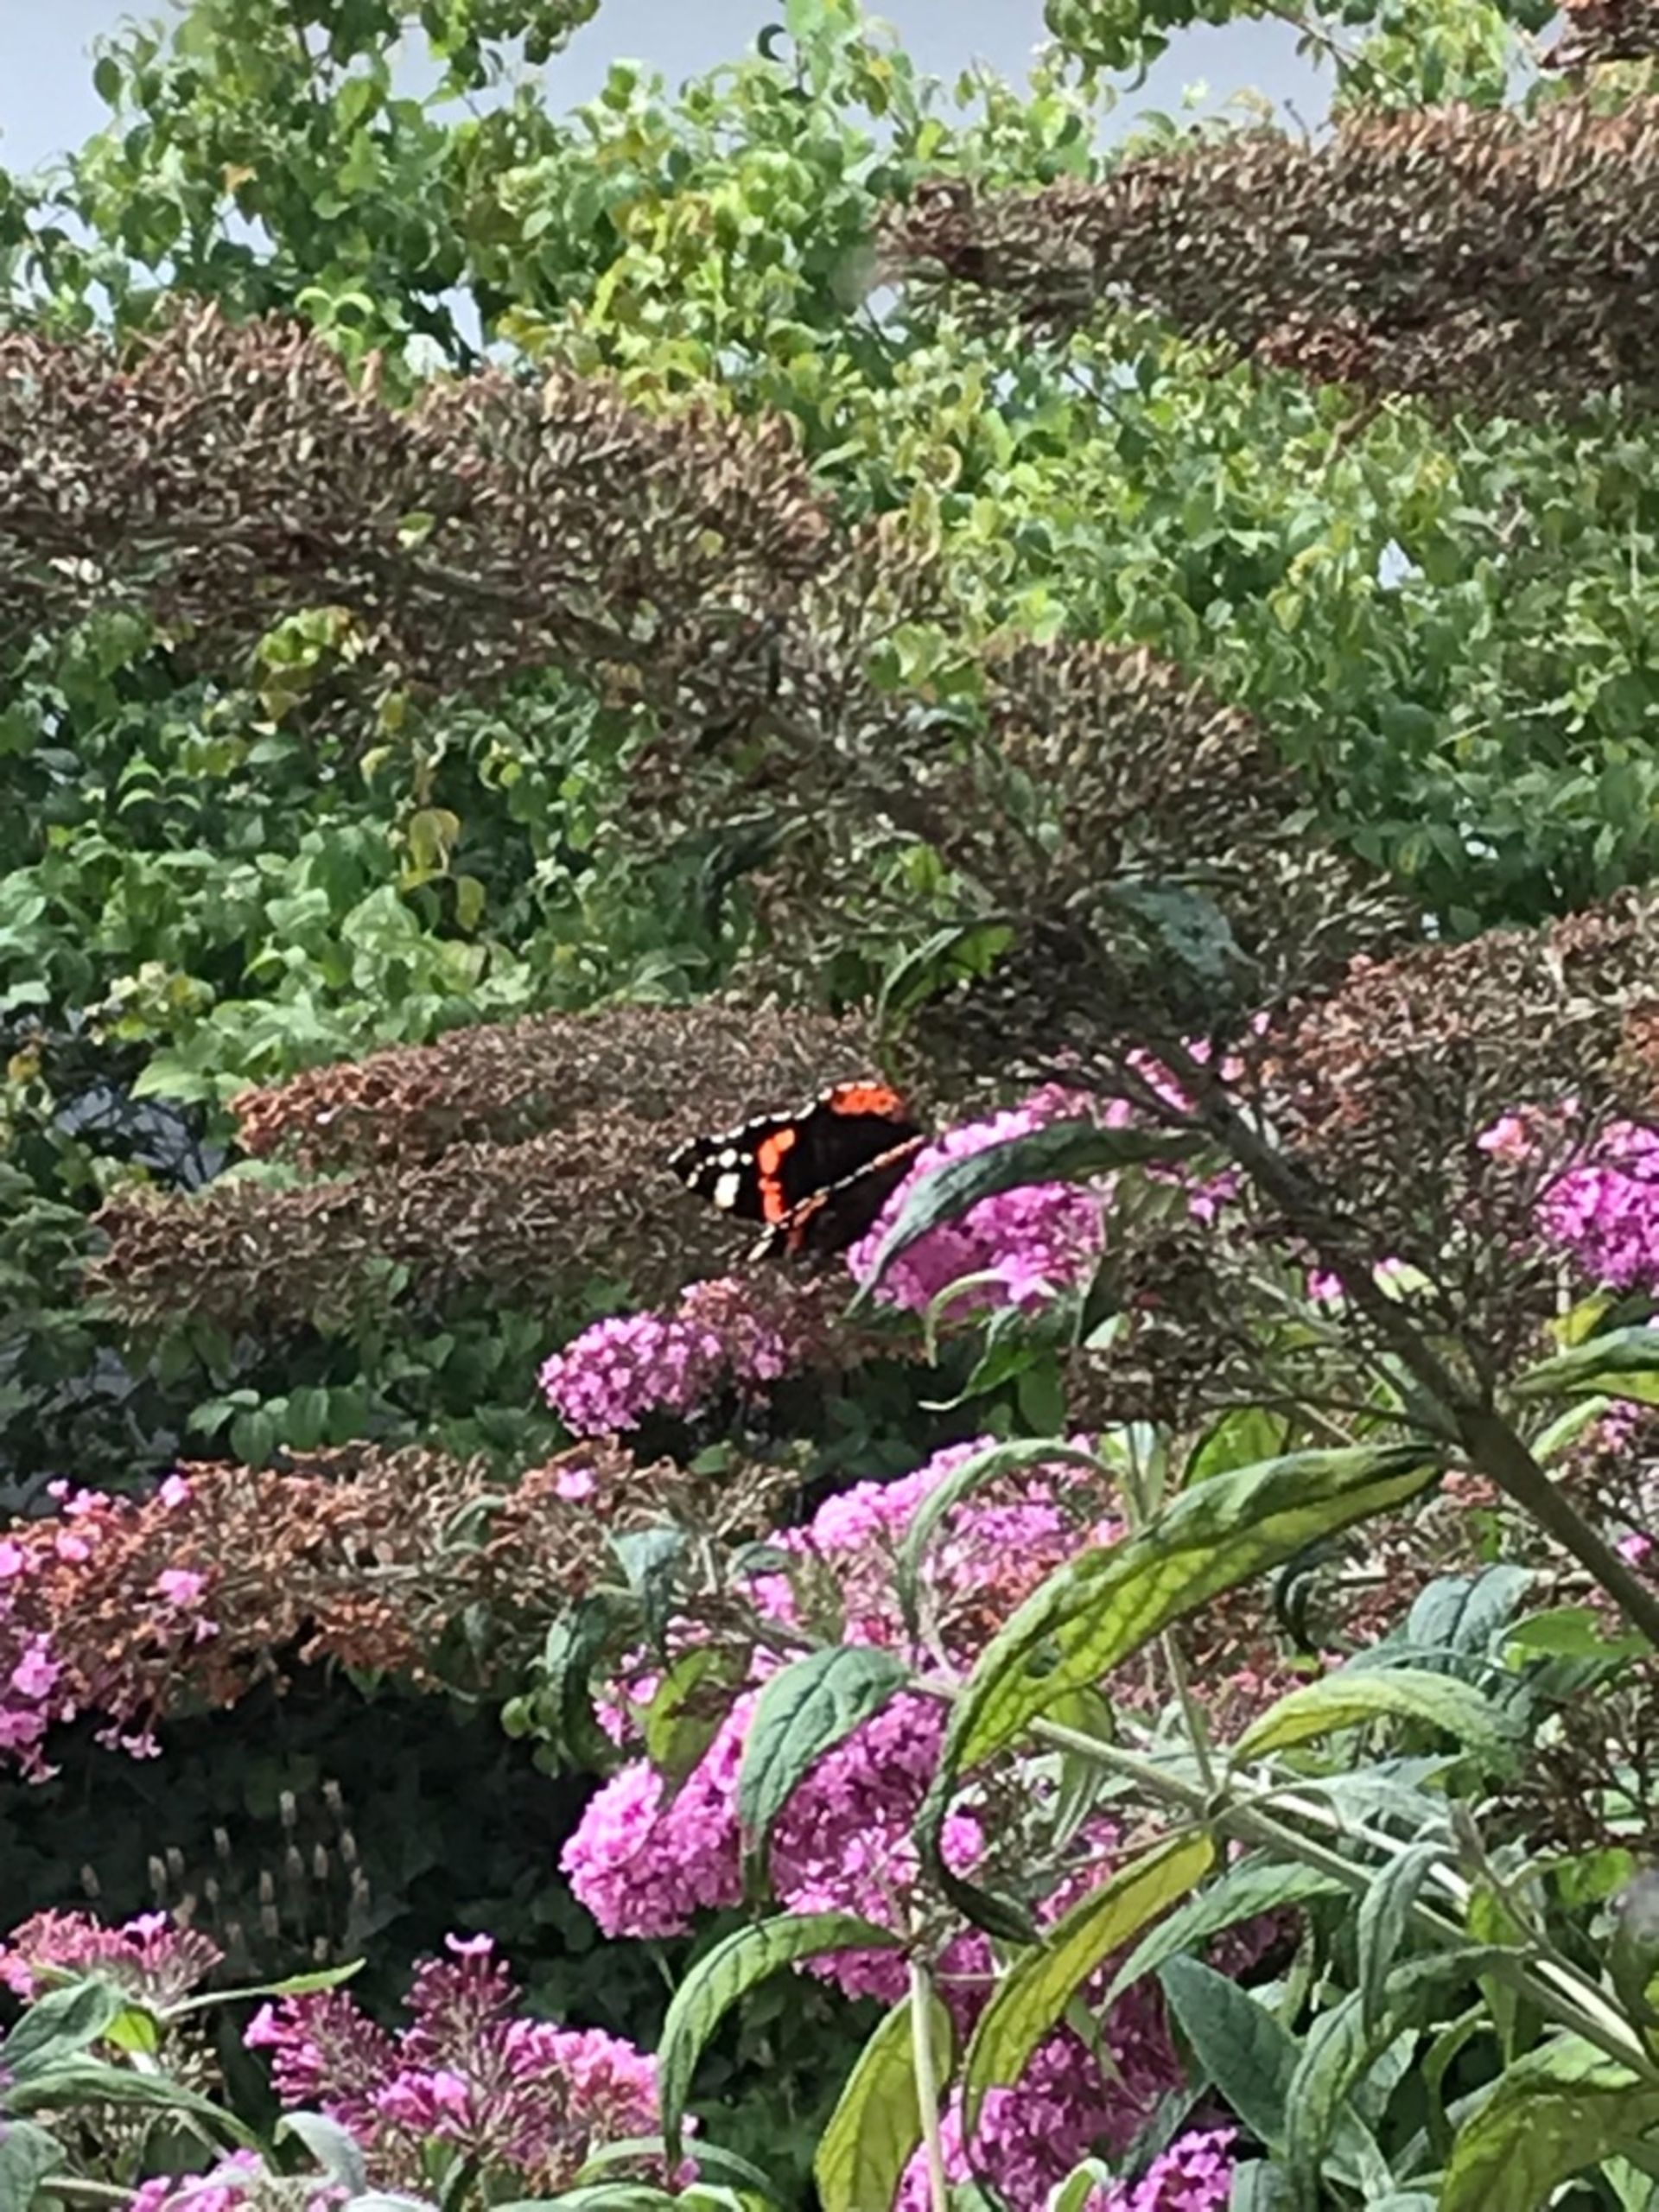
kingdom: Animalia
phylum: Arthropoda
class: Insecta
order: Lepidoptera
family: Nymphalidae
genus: Vanessa
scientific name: Vanessa atalanta
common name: Admiral
